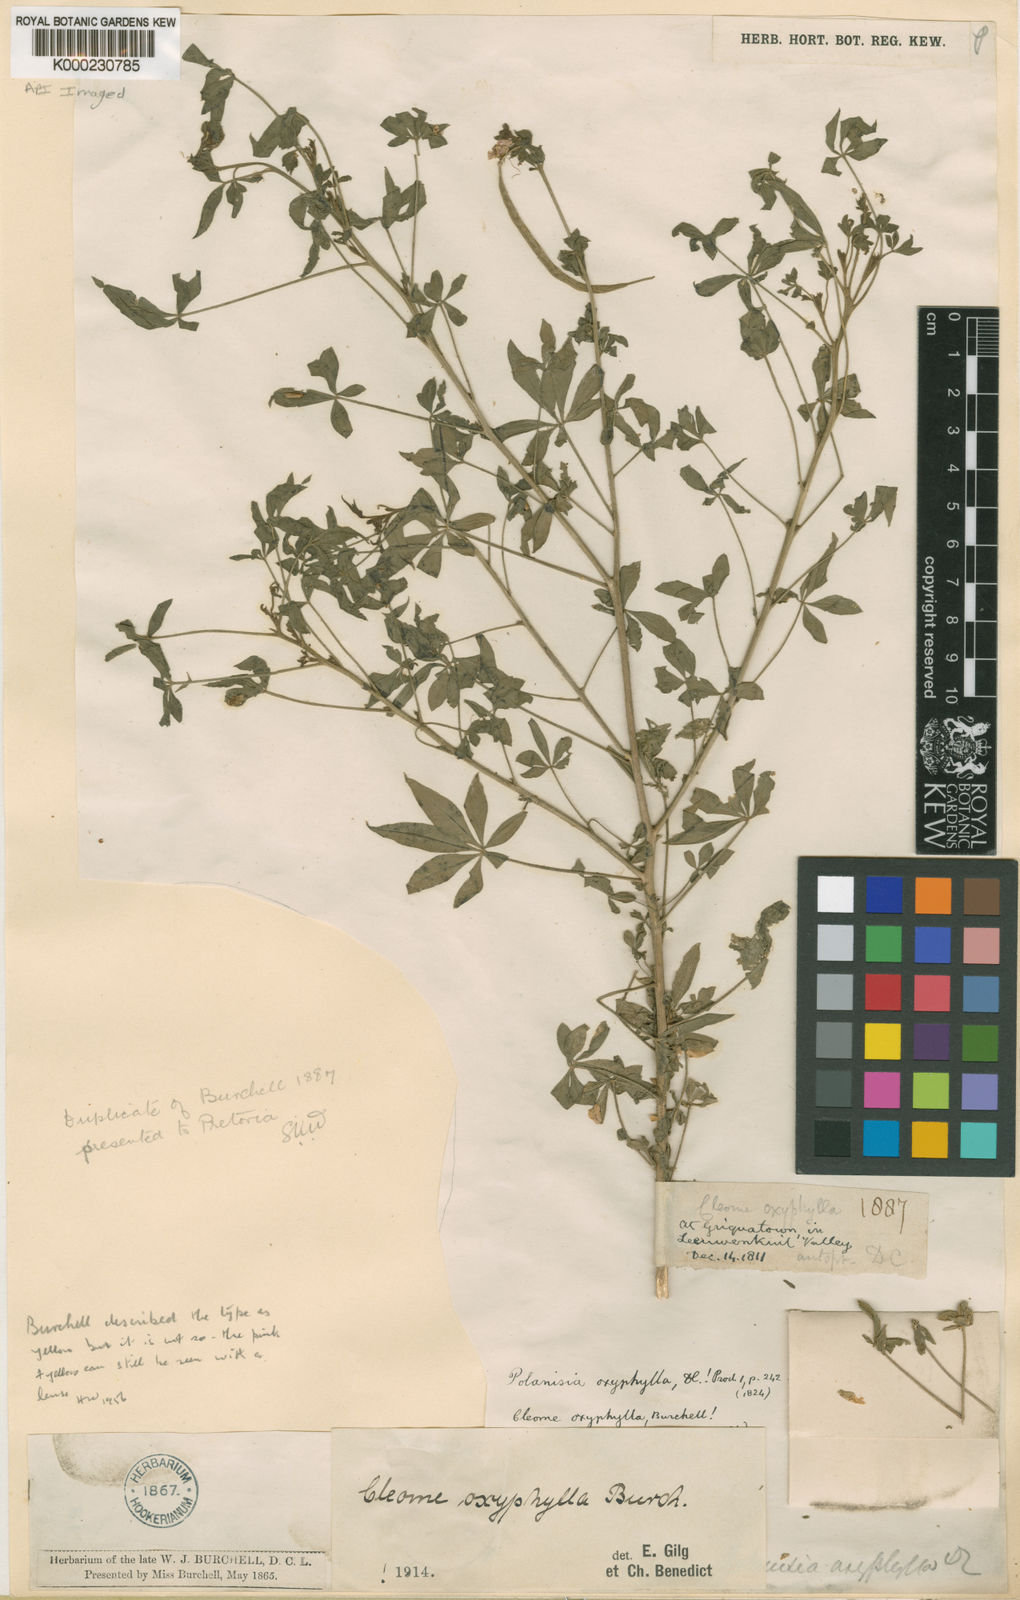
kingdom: Plantae
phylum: Tracheophyta
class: Magnoliopsida
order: Brassicales
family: Cleomaceae
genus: Sieruela
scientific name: Sieruela oxyphylla
